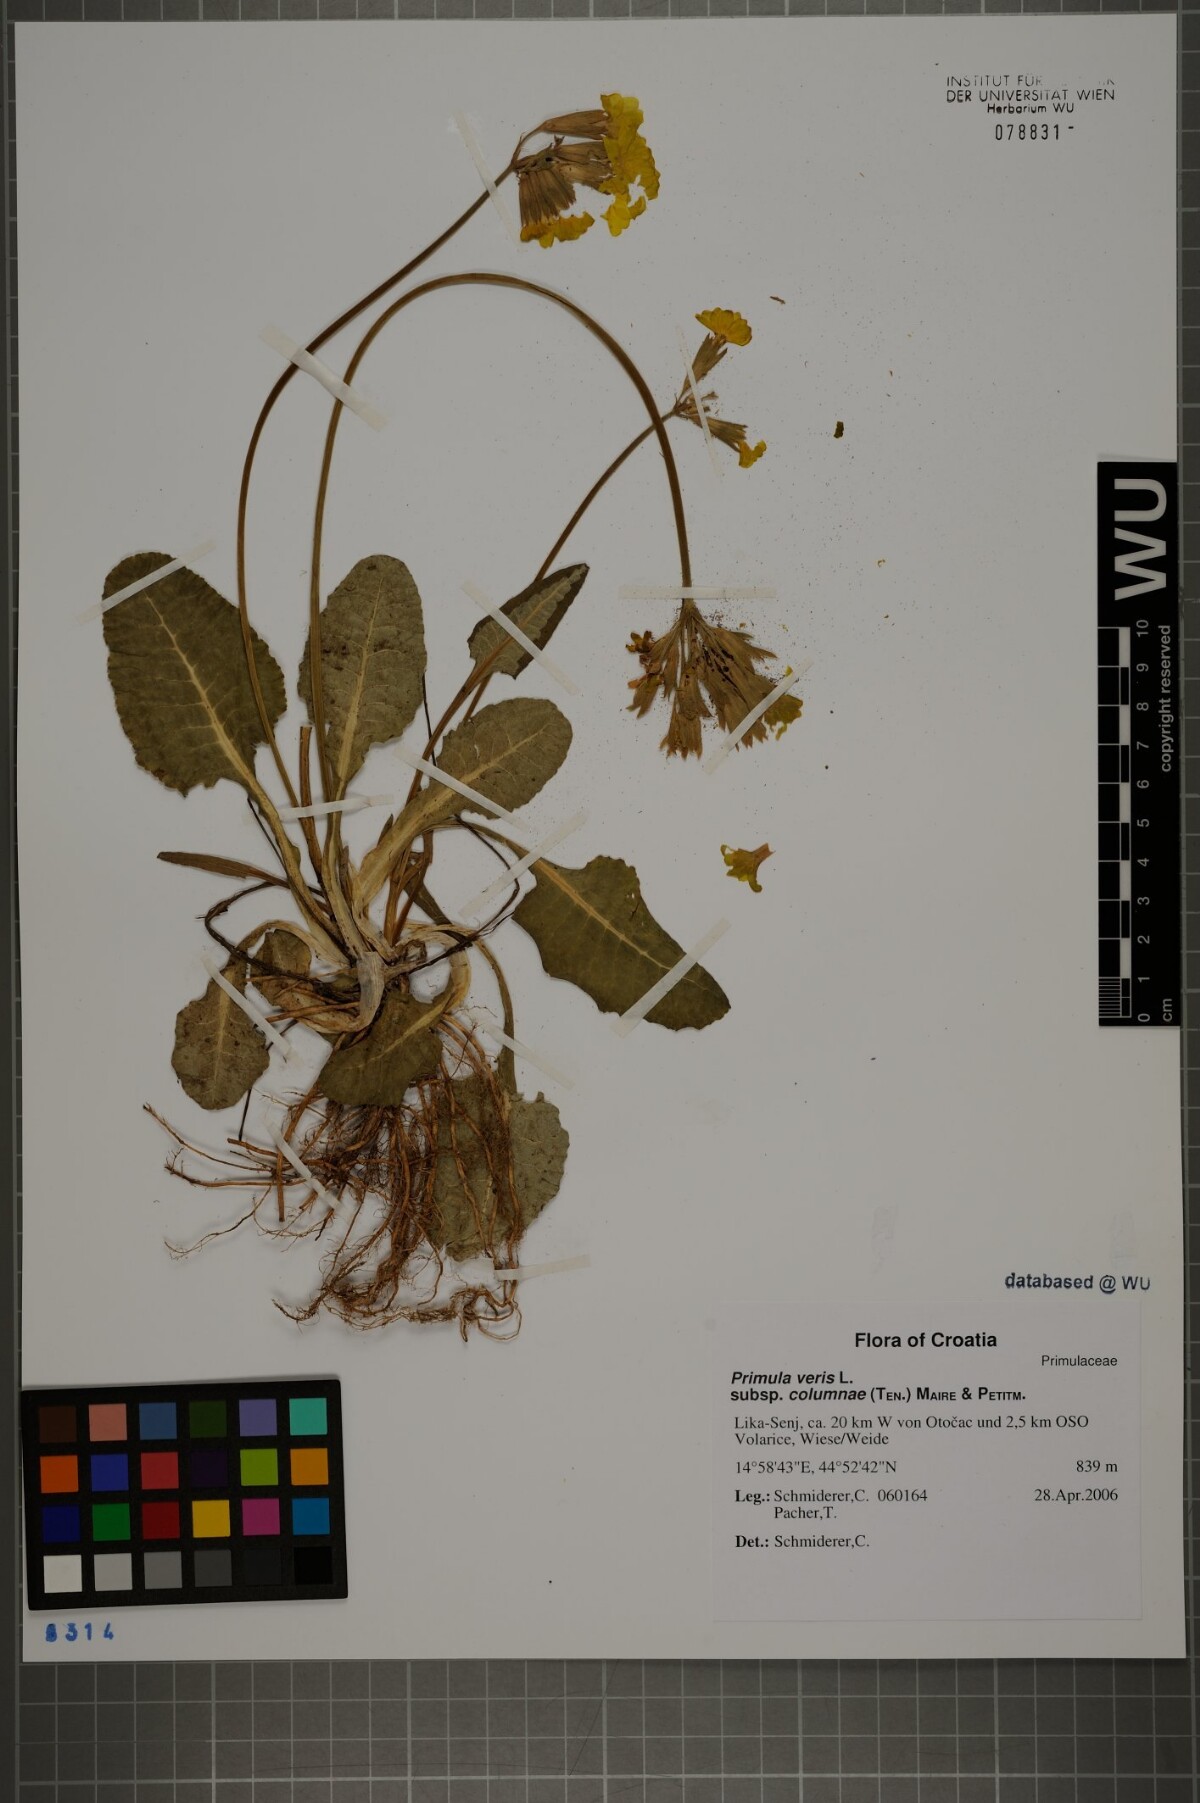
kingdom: Plantae
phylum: Tracheophyta
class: Magnoliopsida
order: Ericales
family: Primulaceae
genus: Primula
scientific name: Primula veris
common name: Cowslip
